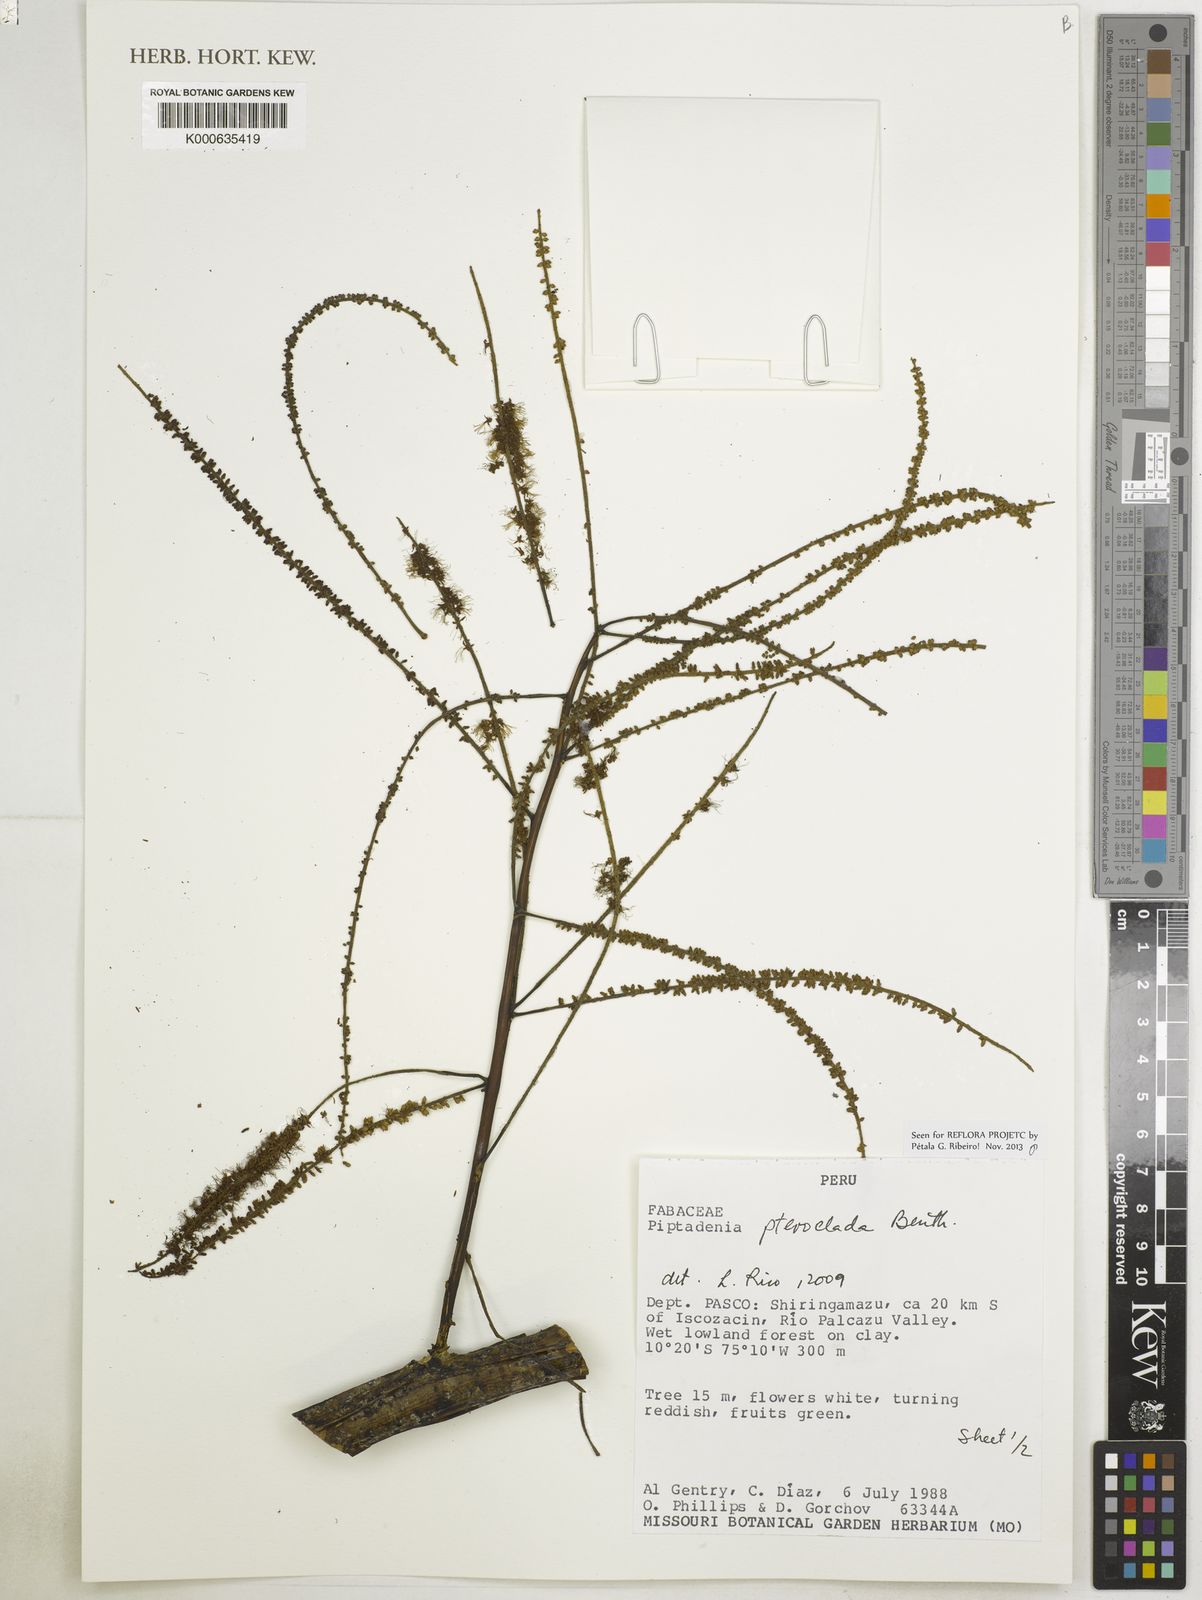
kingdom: Plantae
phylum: Tracheophyta
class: Magnoliopsida
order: Fabales
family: Fabaceae
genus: Piptadenia
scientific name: Piptadenia pteroclada
